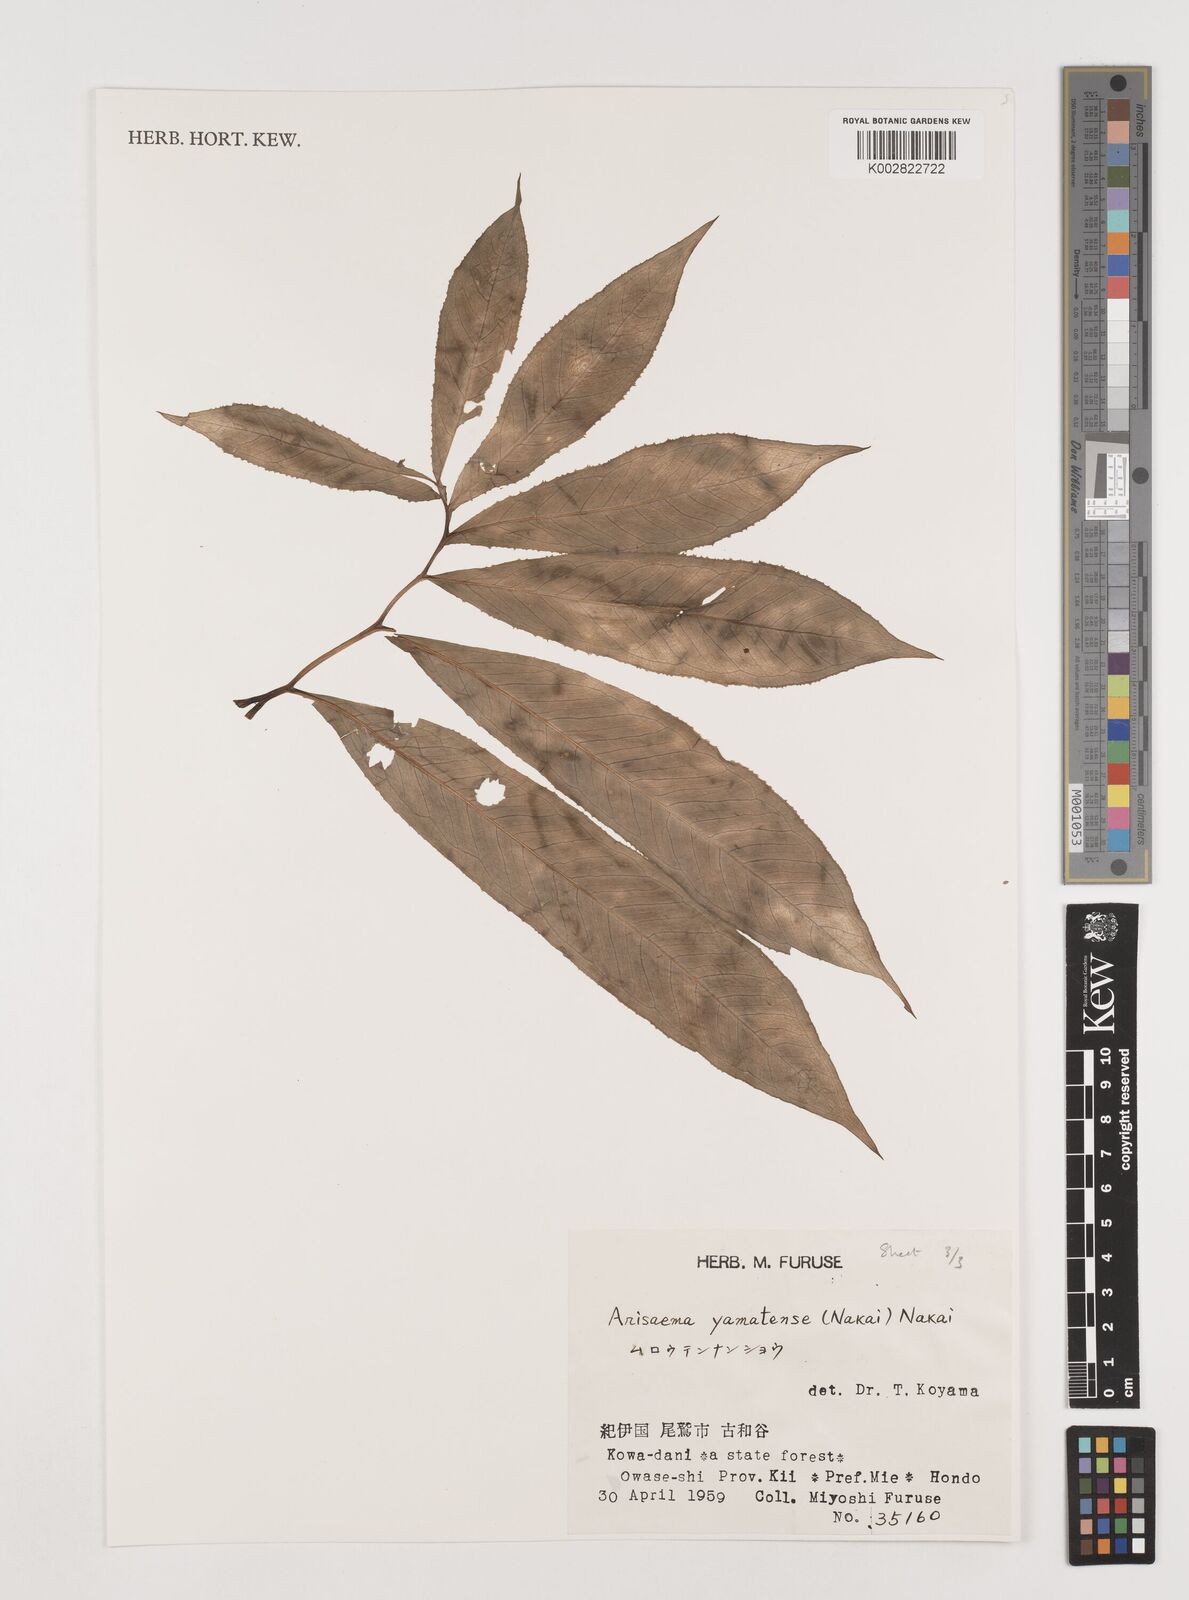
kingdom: Plantae
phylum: Tracheophyta
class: Liliopsida
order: Alismatales
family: Araceae
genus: Arisaema
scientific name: Arisaema yamatense
